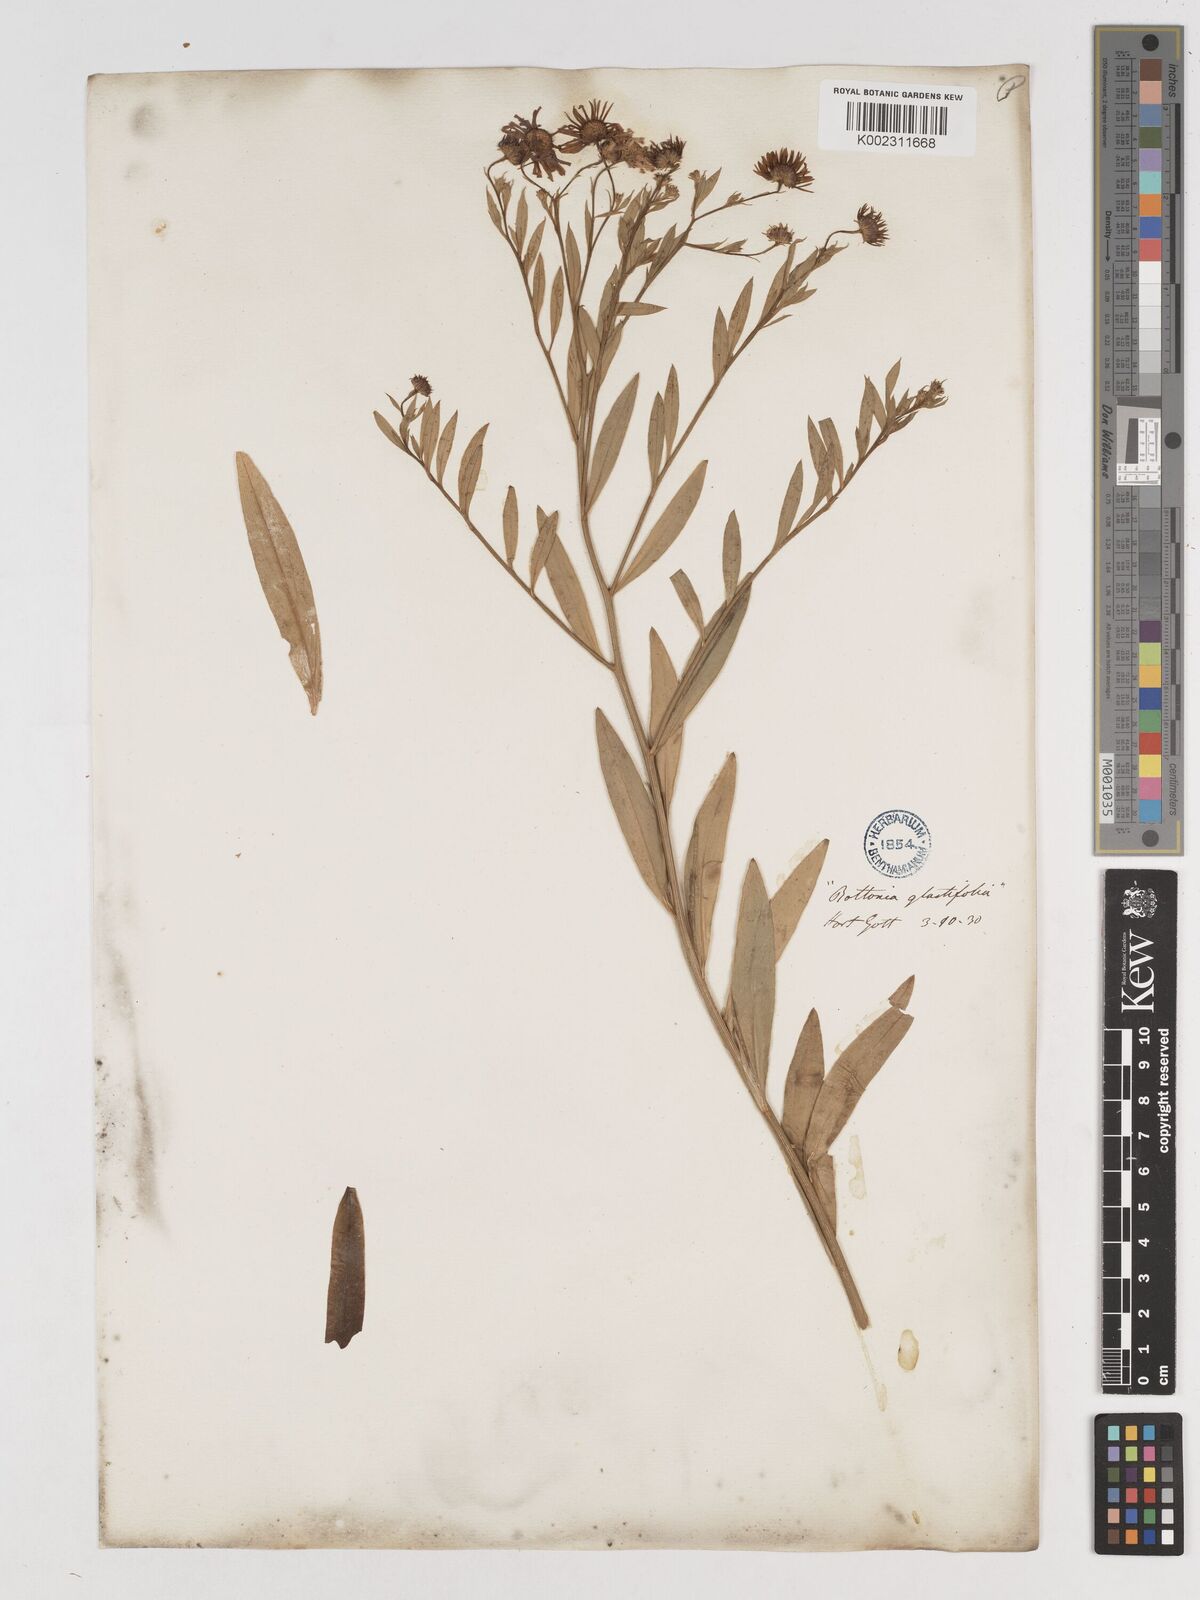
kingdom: Plantae
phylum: Tracheophyta
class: Magnoliopsida
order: Asterales
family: Asteraceae
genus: Boltonia
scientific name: Boltonia glastifolia
